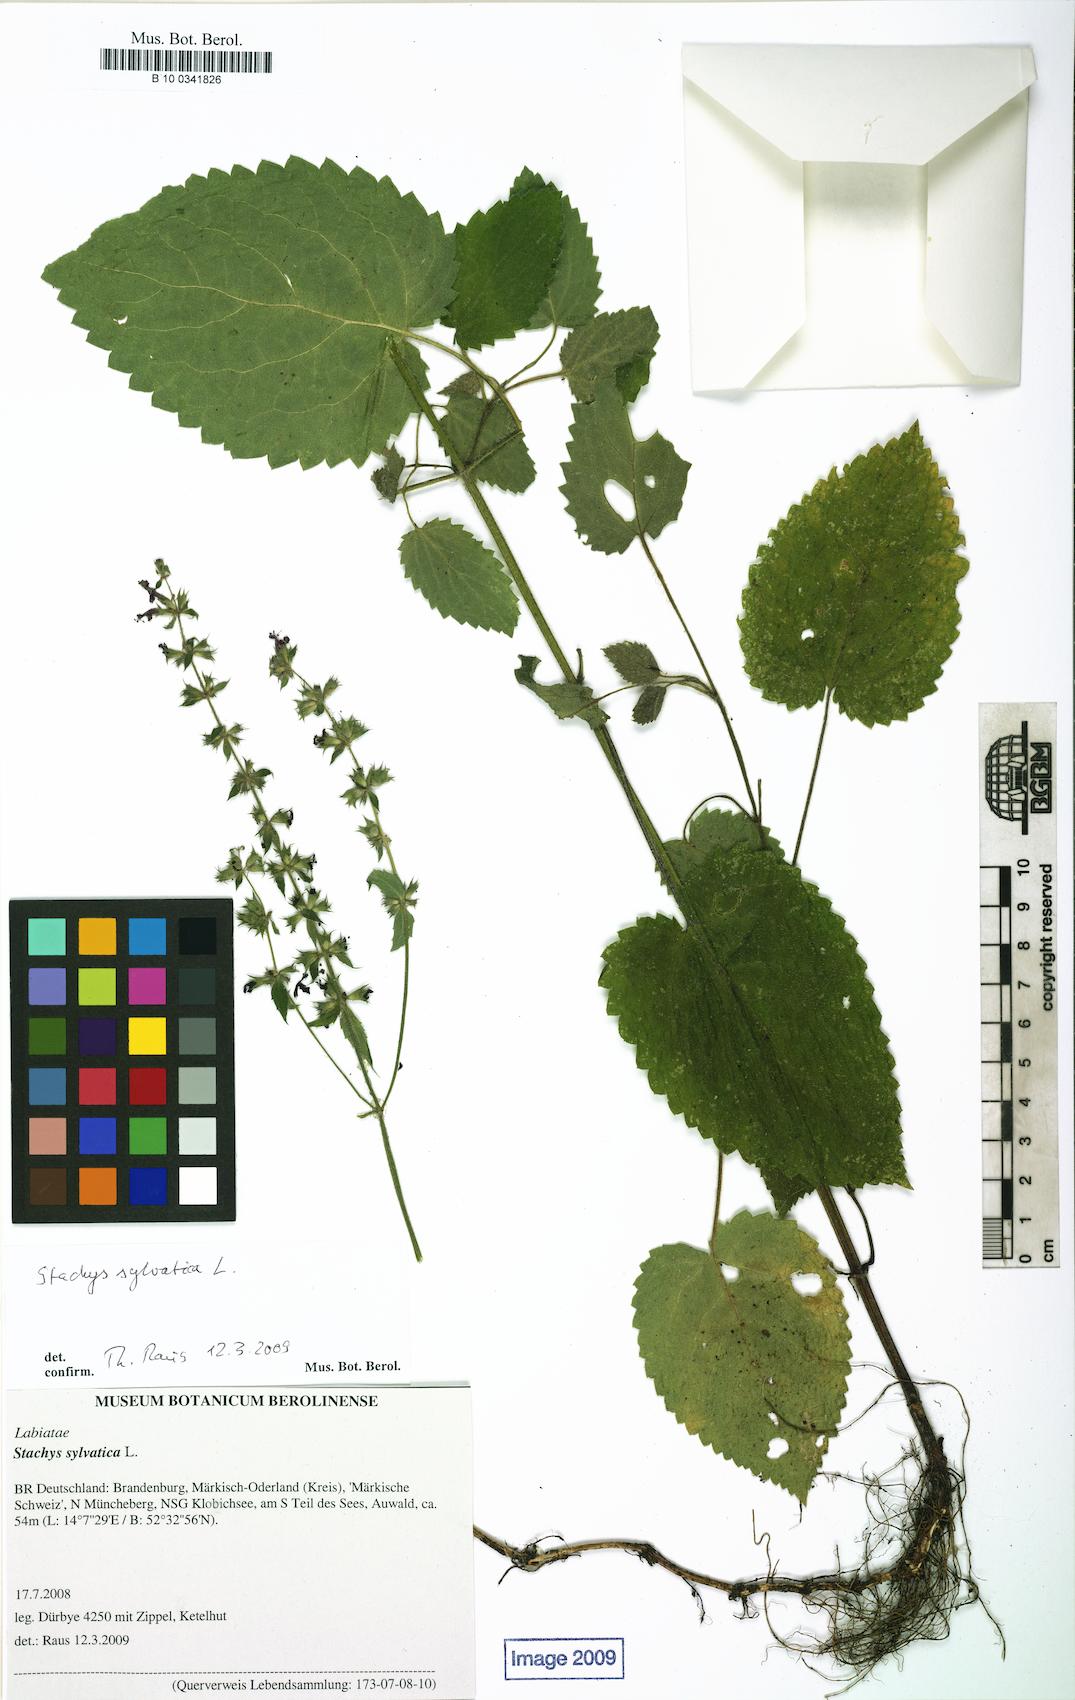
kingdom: Plantae
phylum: Tracheophyta
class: Magnoliopsida
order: Malpighiales
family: Salicaceae
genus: Salix
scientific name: Salix repens
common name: Creeping willow
